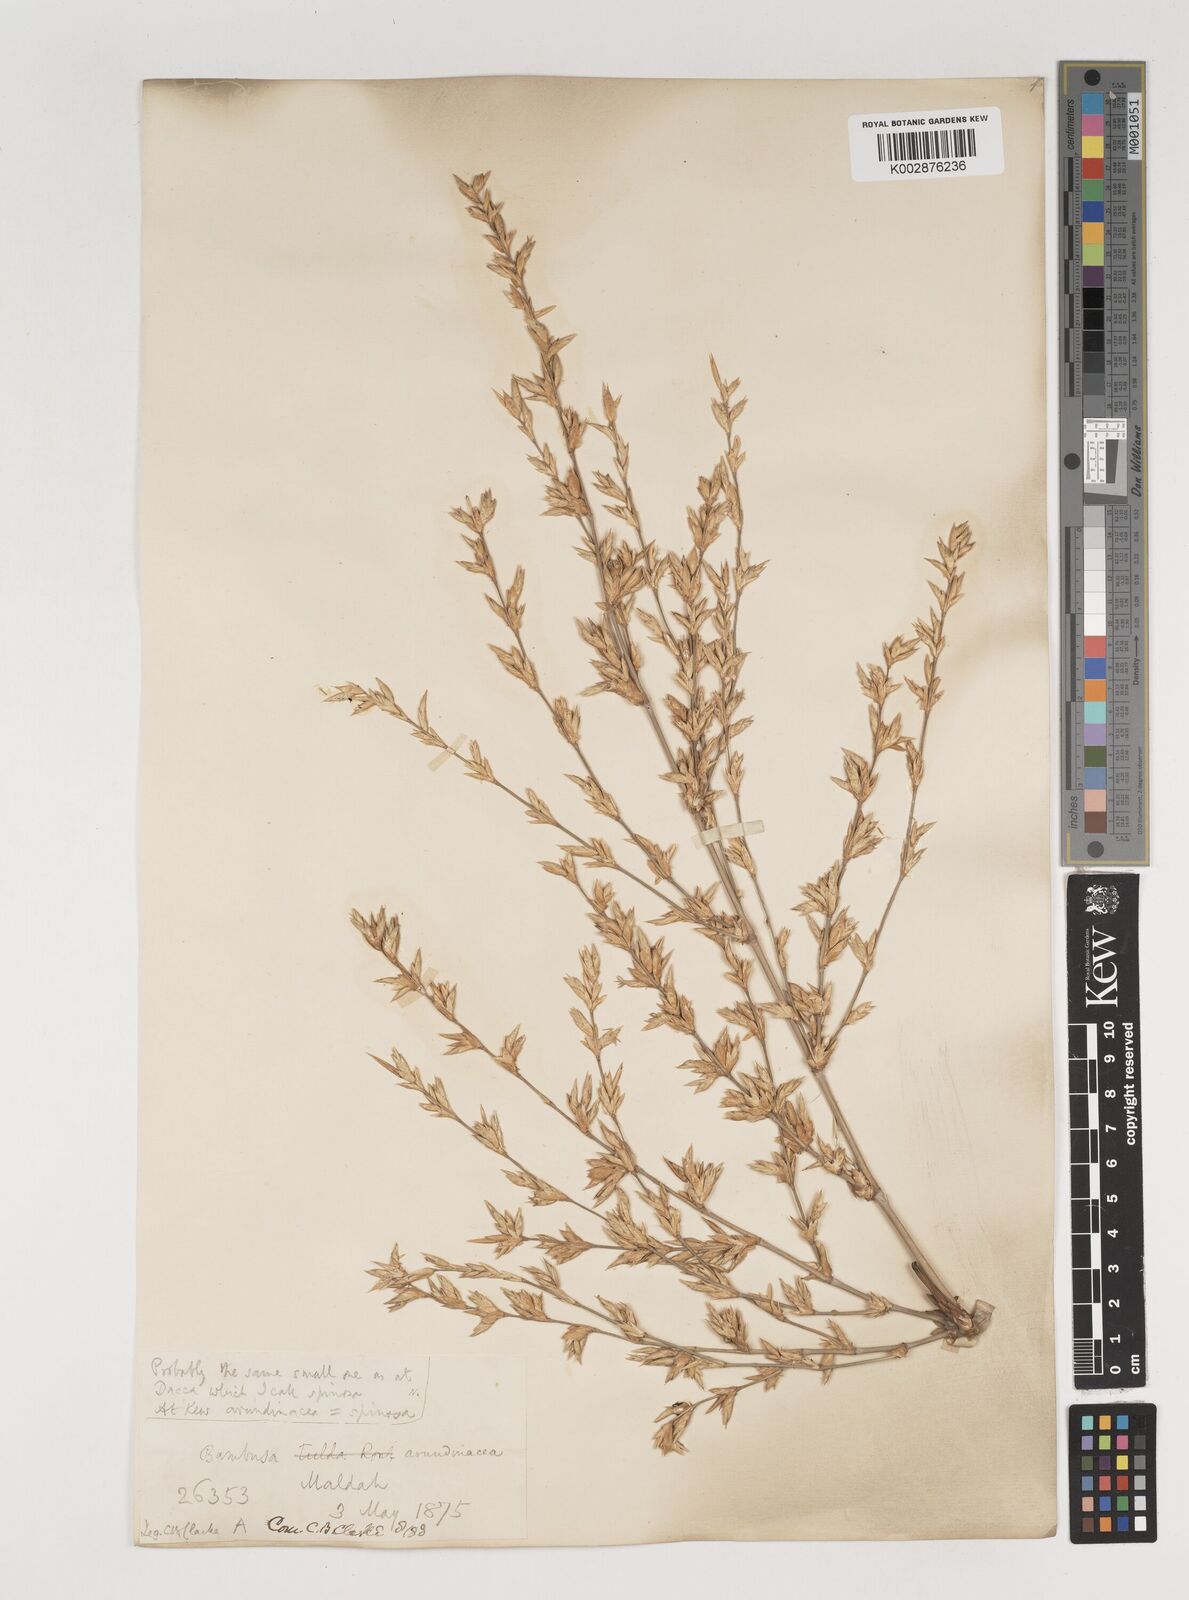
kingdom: Plantae
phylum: Tracheophyta
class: Liliopsida
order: Poales
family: Poaceae
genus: Bambusa
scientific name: Bambusa bambos
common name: Indian thorny bamboo
